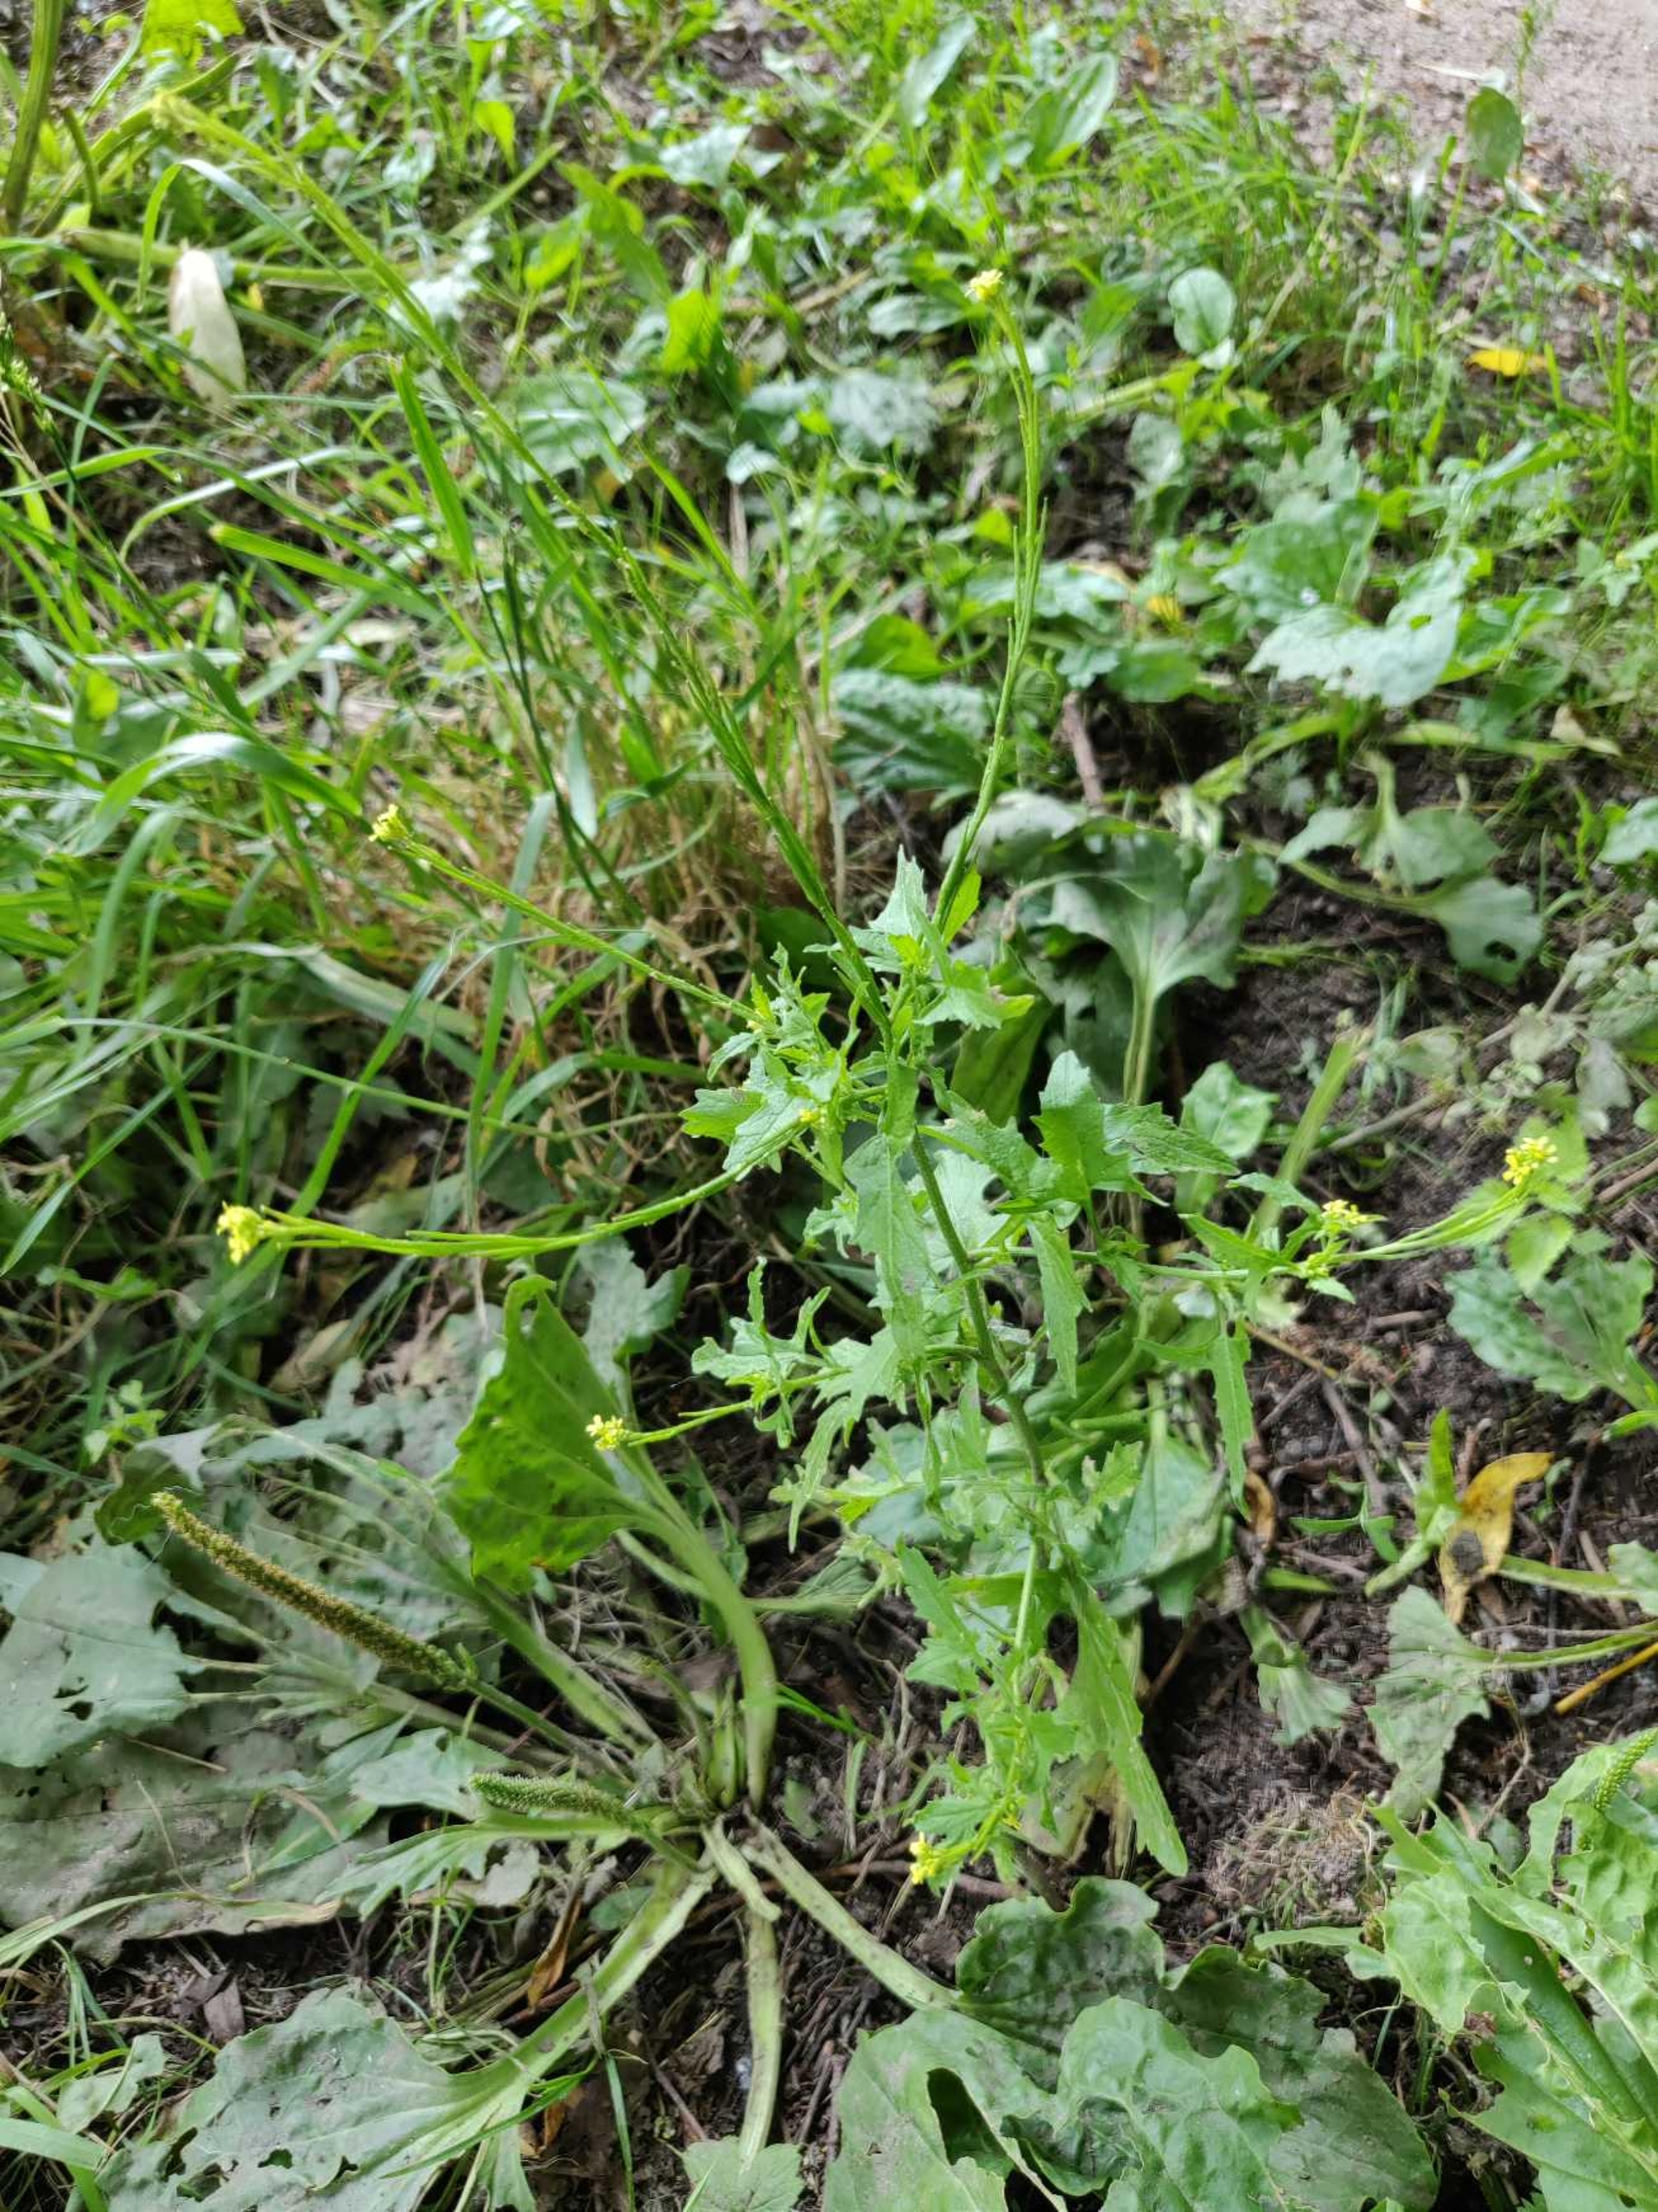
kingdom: Plantae
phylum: Tracheophyta
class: Magnoliopsida
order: Brassicales
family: Brassicaceae
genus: Sisymbrium
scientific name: Sisymbrium officinale
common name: Rank vejsennep
